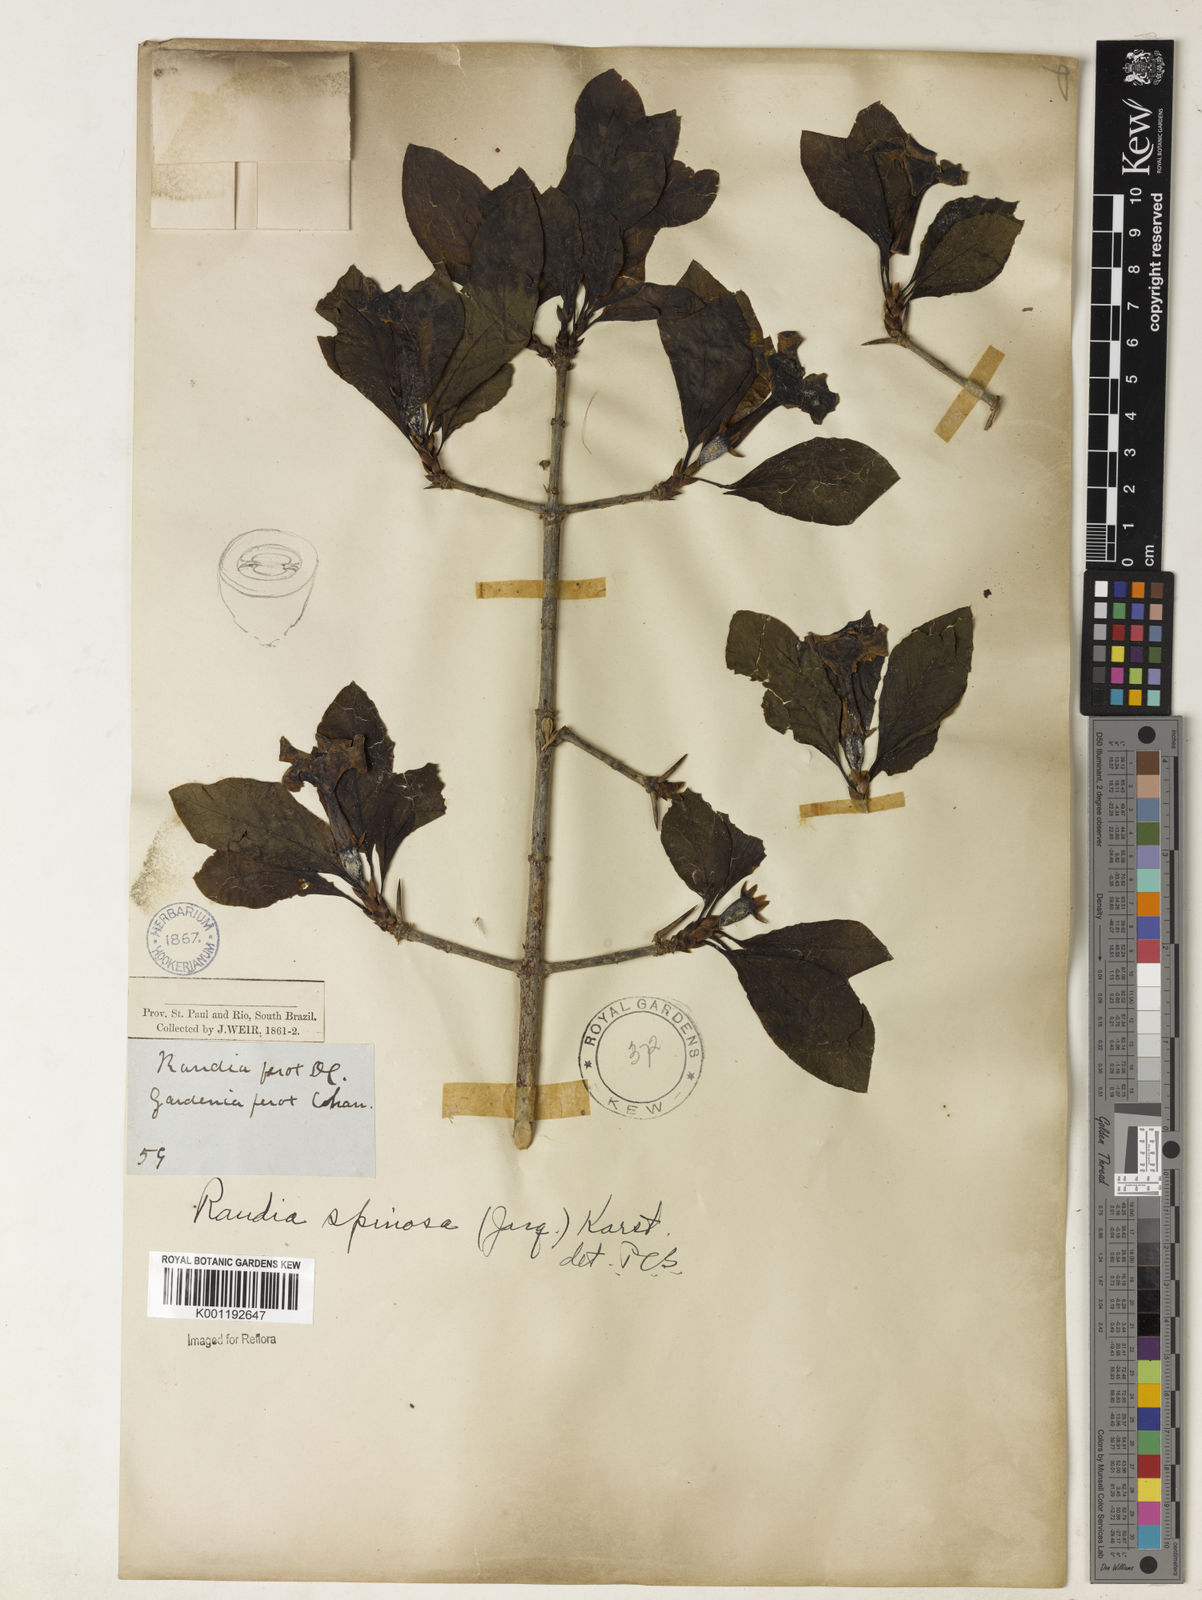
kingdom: Plantae
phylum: Tracheophyta
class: Magnoliopsida
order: Gentianales
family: Rubiaceae
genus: Randia
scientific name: Randia armata
